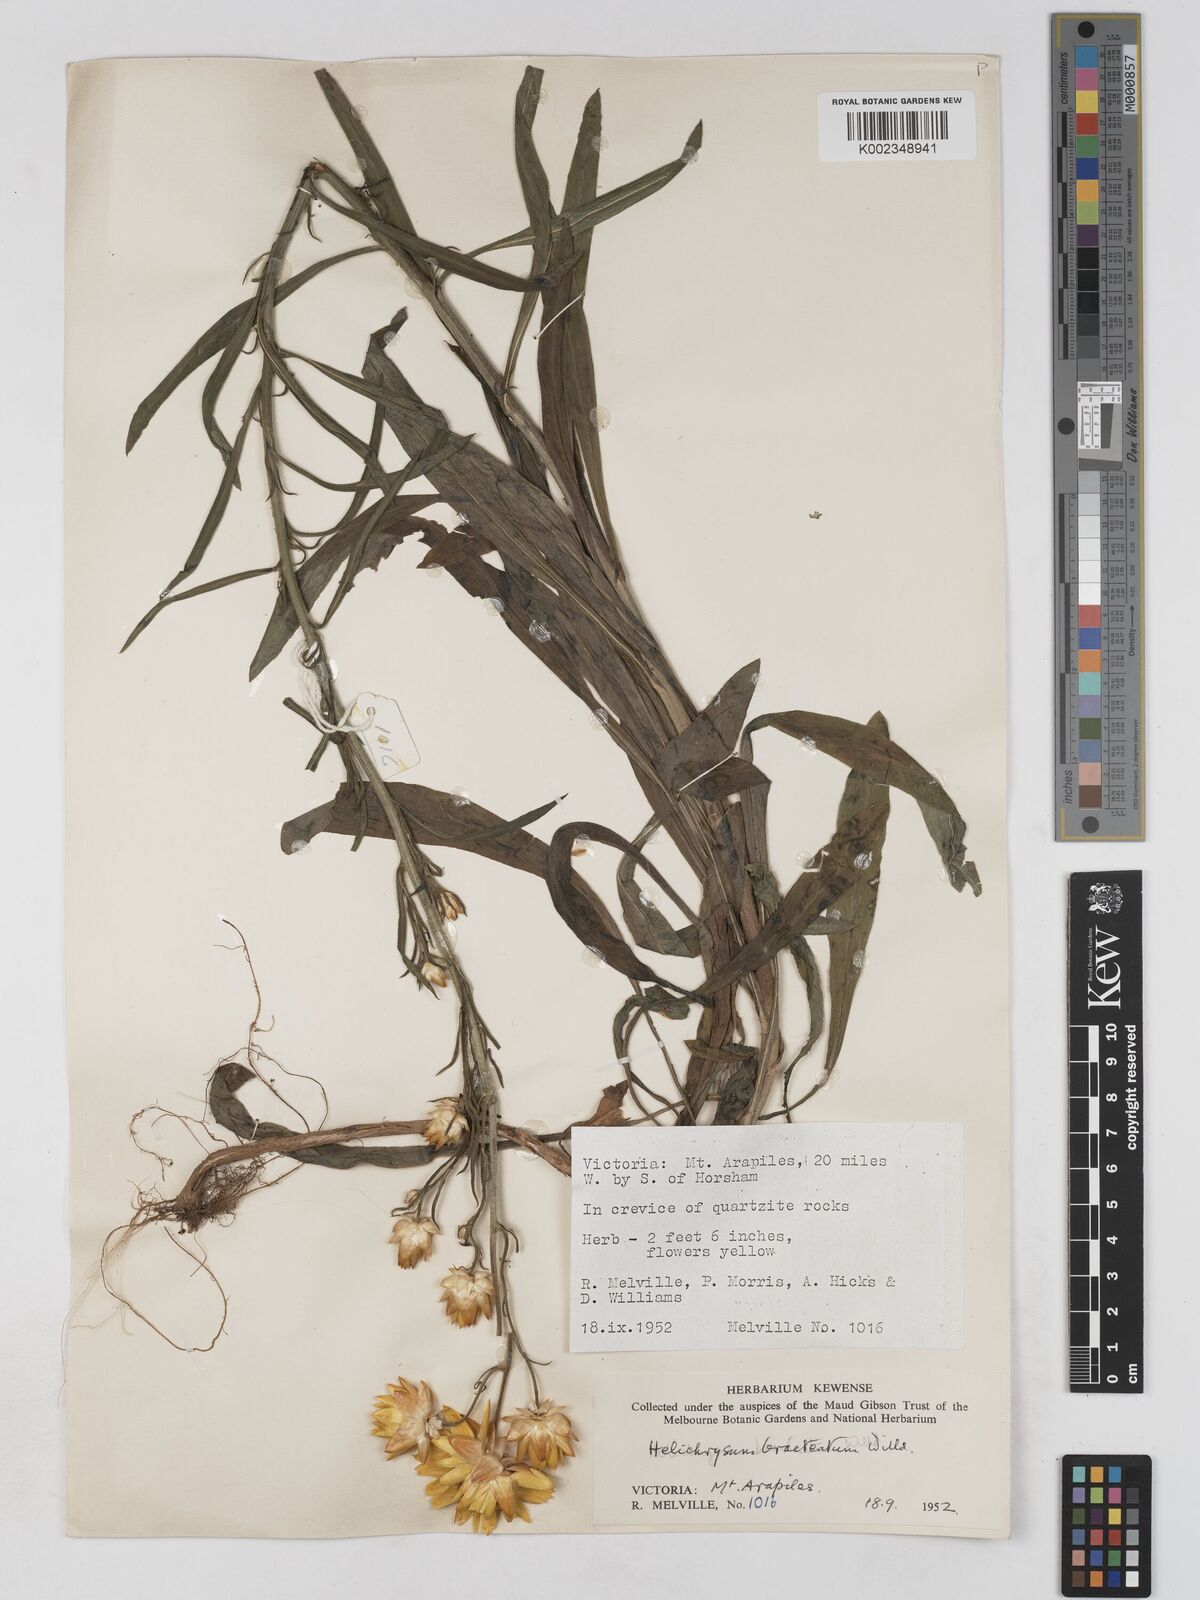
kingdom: Plantae
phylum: Tracheophyta
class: Magnoliopsida
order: Asterales
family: Asteraceae
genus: Xerochrysum
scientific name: Xerochrysum bracteatum
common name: Bracted strawflower
